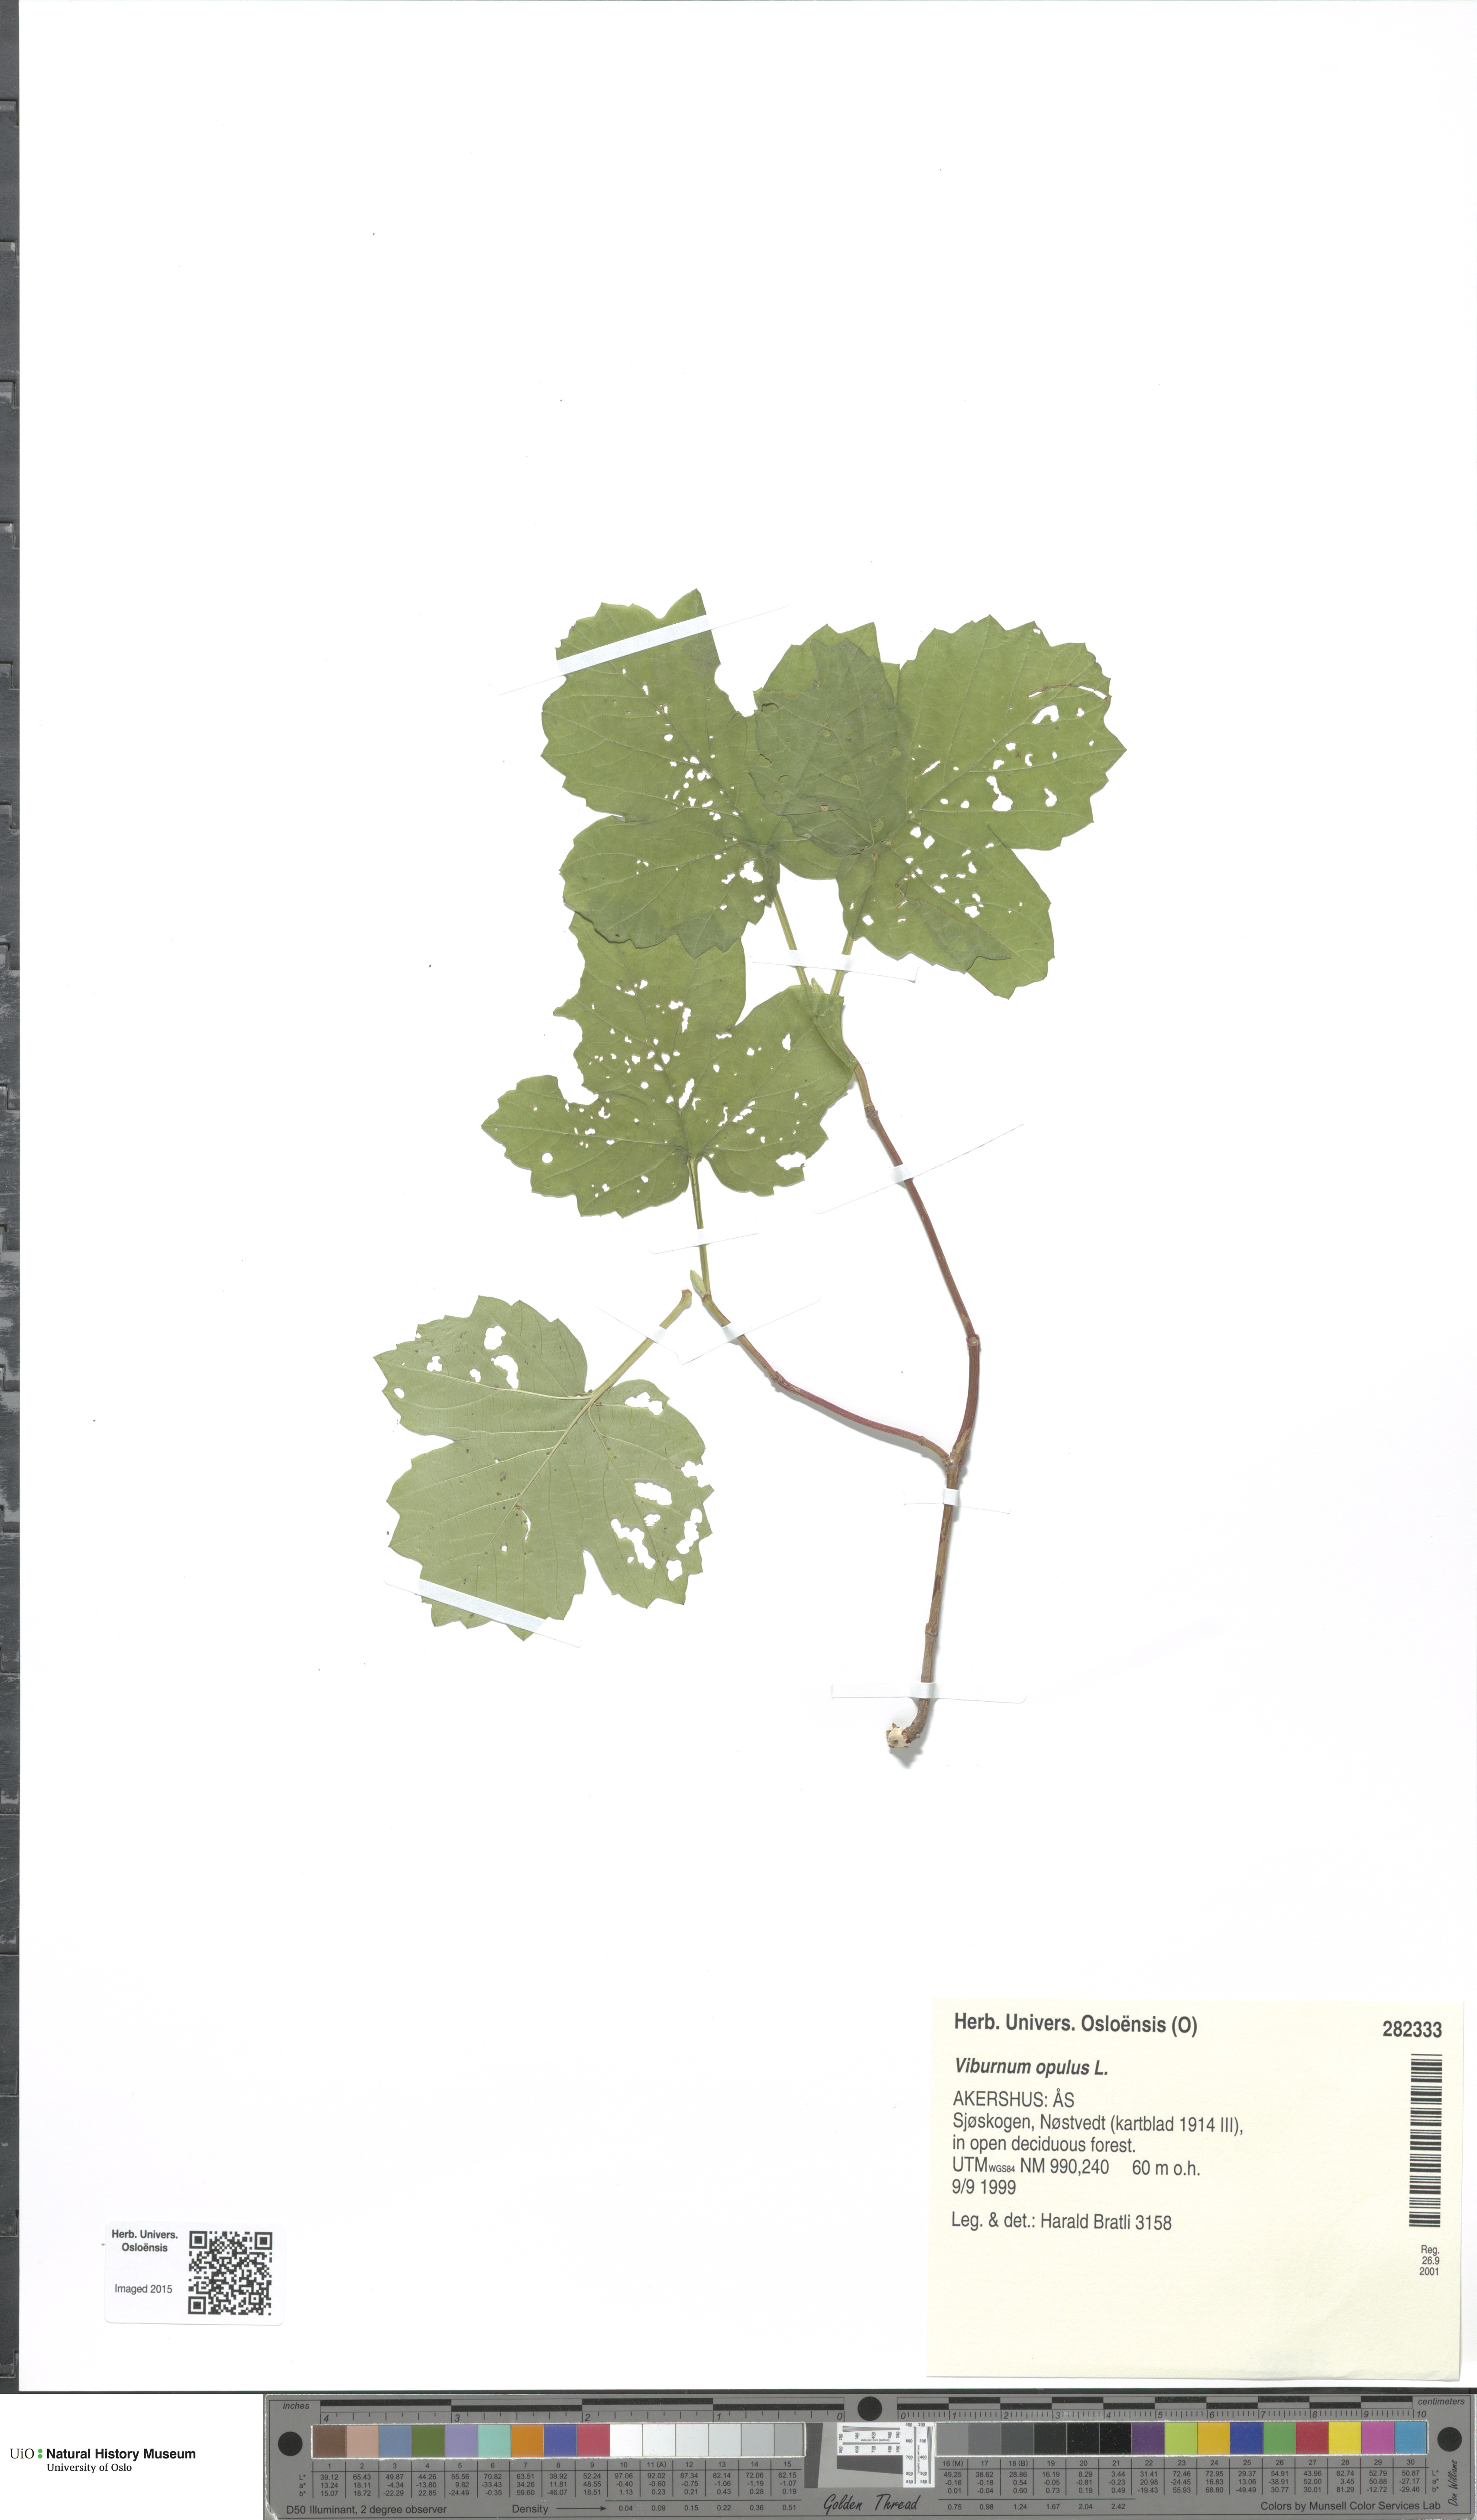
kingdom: Plantae
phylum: Tracheophyta
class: Magnoliopsida
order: Dipsacales
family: Viburnaceae
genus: Viburnum
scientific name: Viburnum opulus
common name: Guelder-rose
